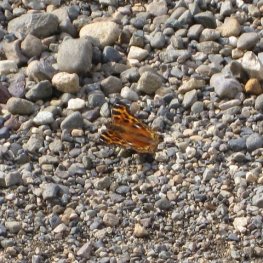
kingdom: Animalia
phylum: Arthropoda
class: Insecta
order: Lepidoptera
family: Nymphalidae
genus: Polygonia
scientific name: Polygonia vaualbum
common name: Compton Tortoiseshell
